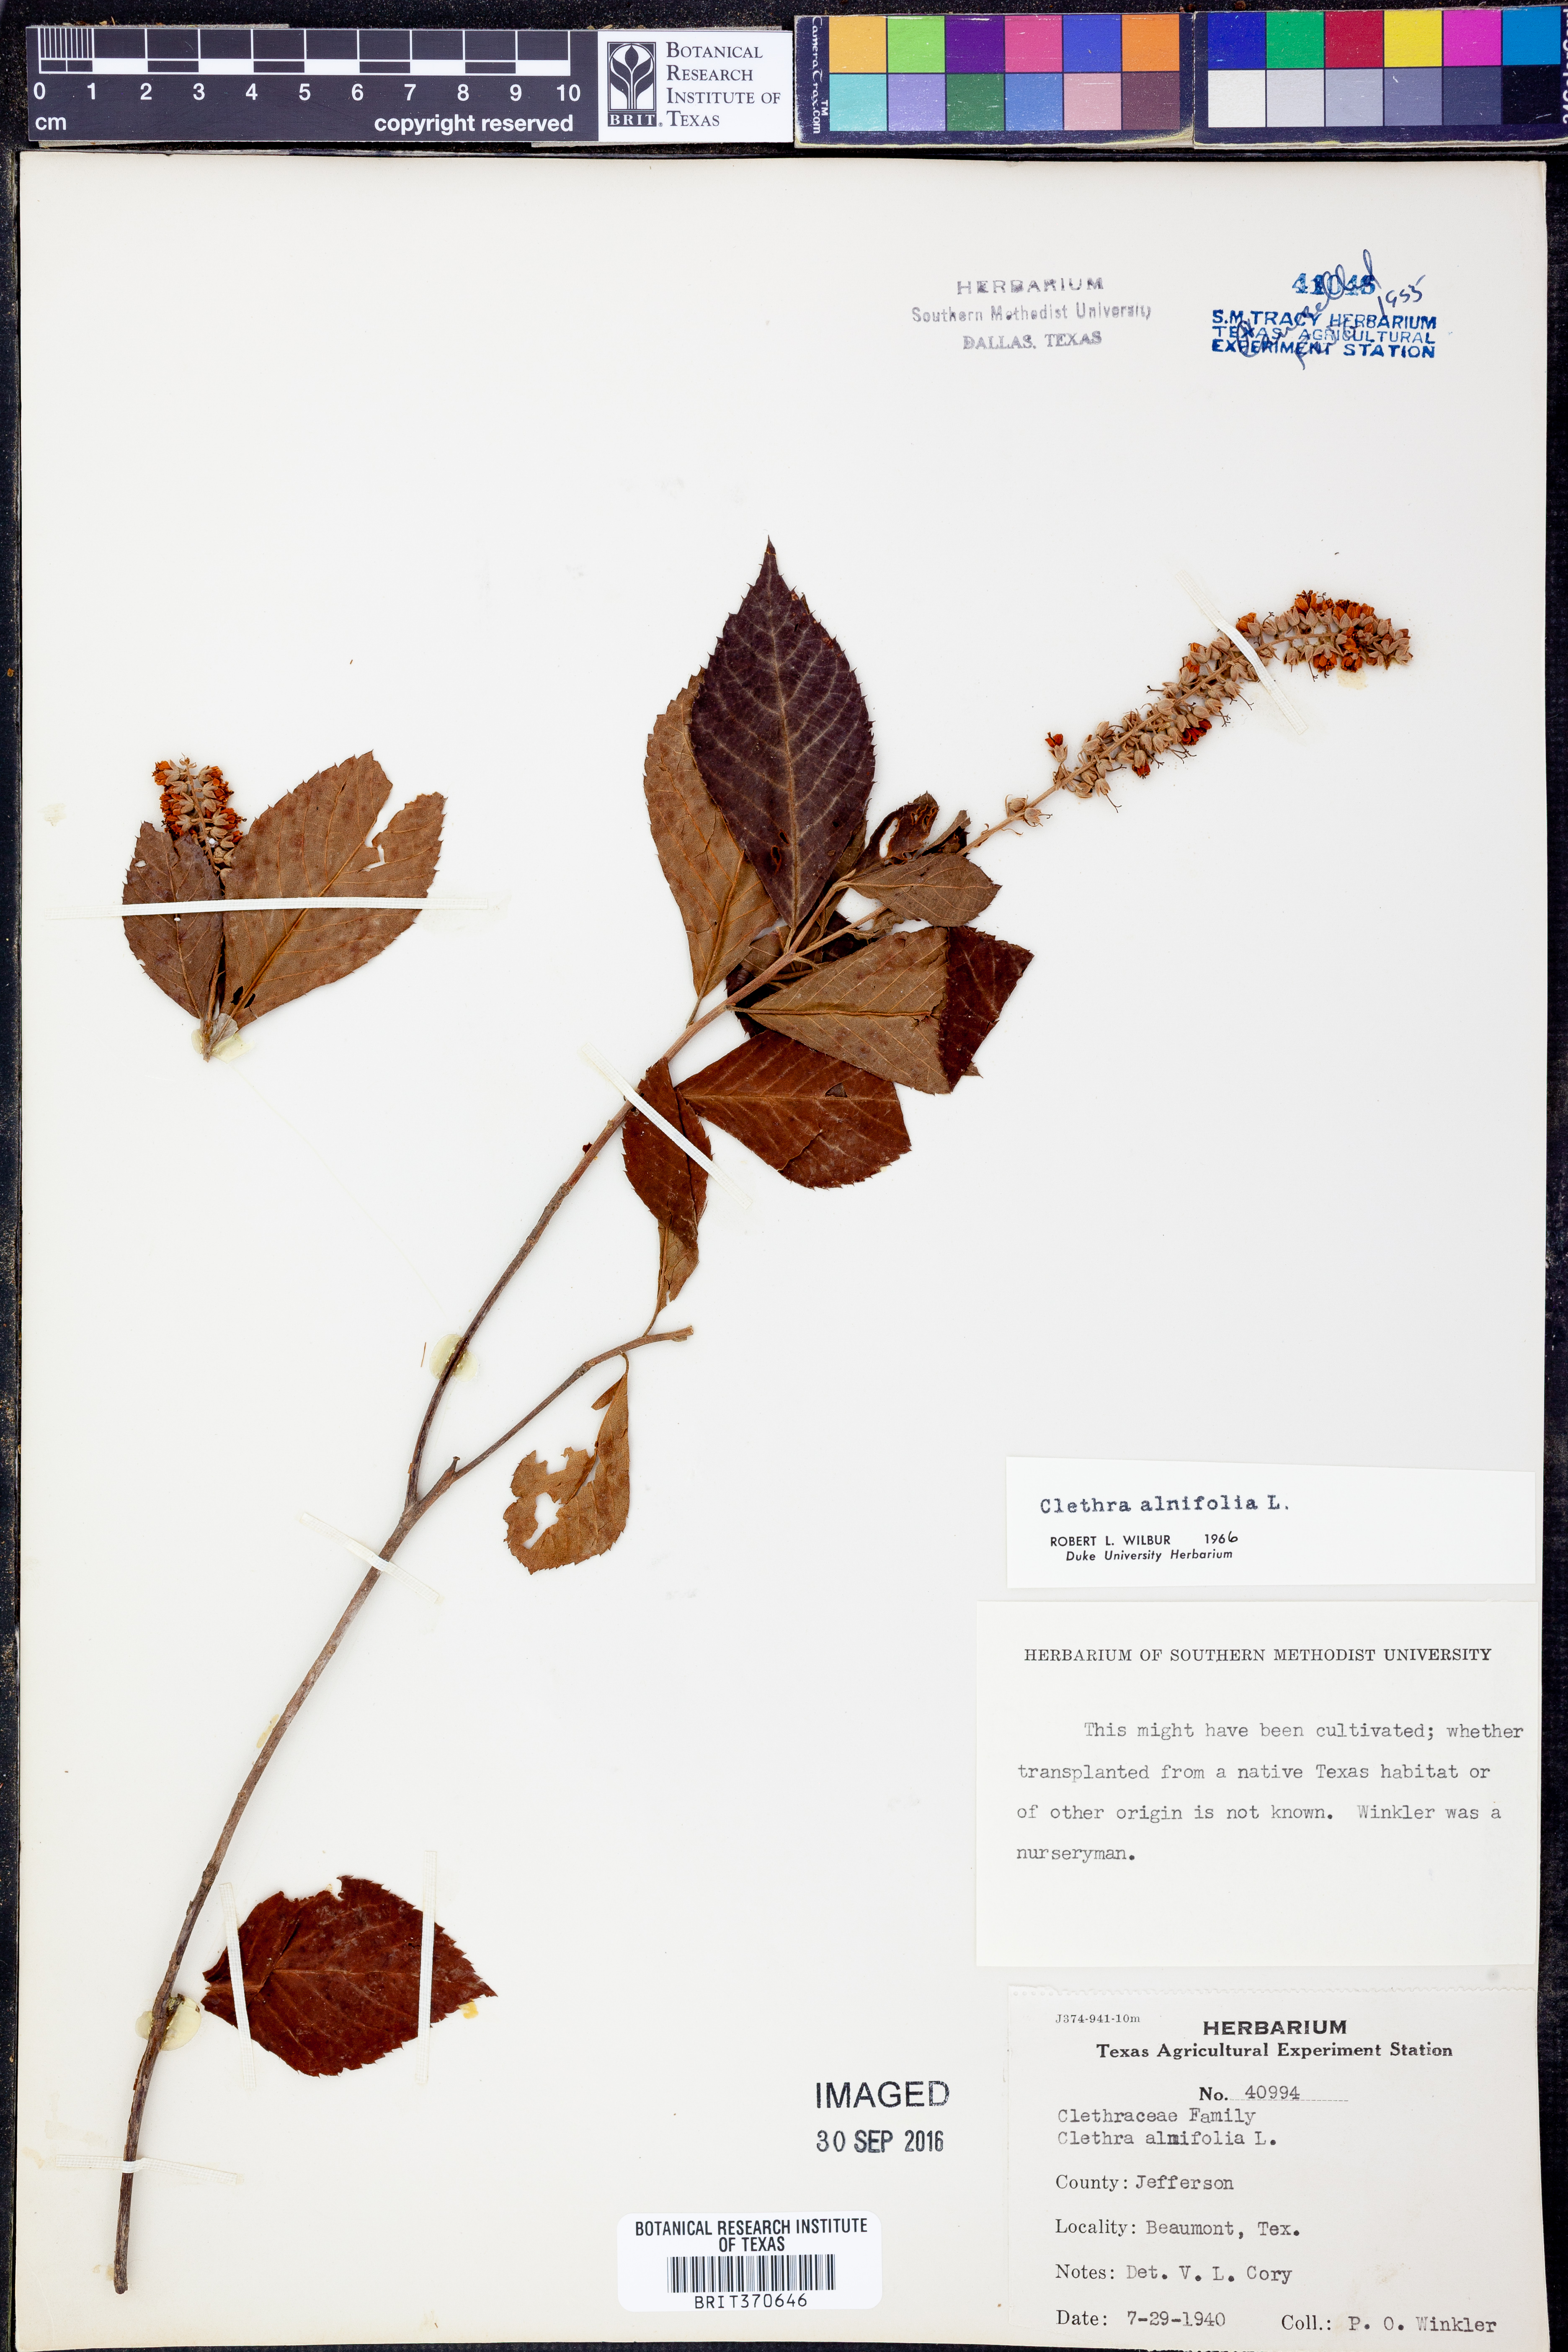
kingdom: Plantae
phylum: Tracheophyta
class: Magnoliopsida
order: Ericales
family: Clethraceae
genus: Clethra
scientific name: Clethra alnifolia
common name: Sweet pepperbush
